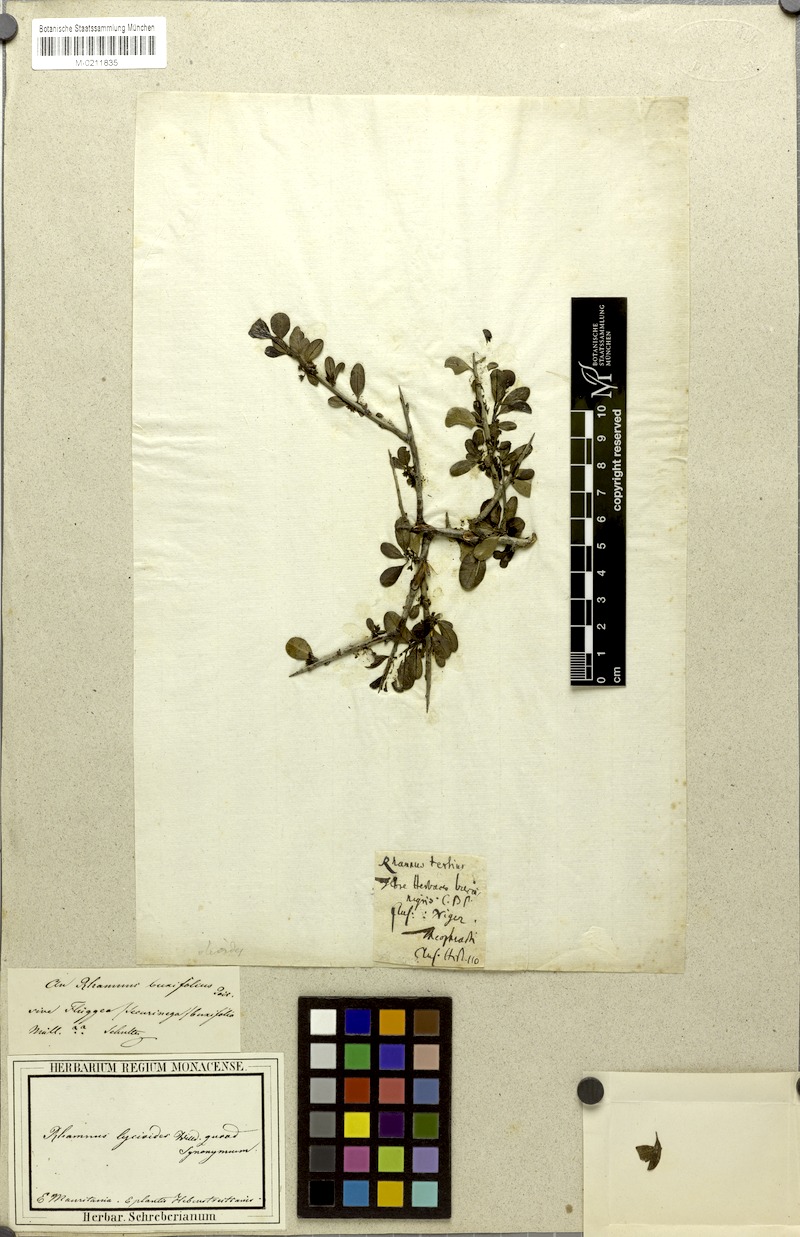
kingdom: Plantae
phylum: Tracheophyta
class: Magnoliopsida
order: Rosales
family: Rhamnaceae
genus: Rhamnus
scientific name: Rhamnus oleoides
